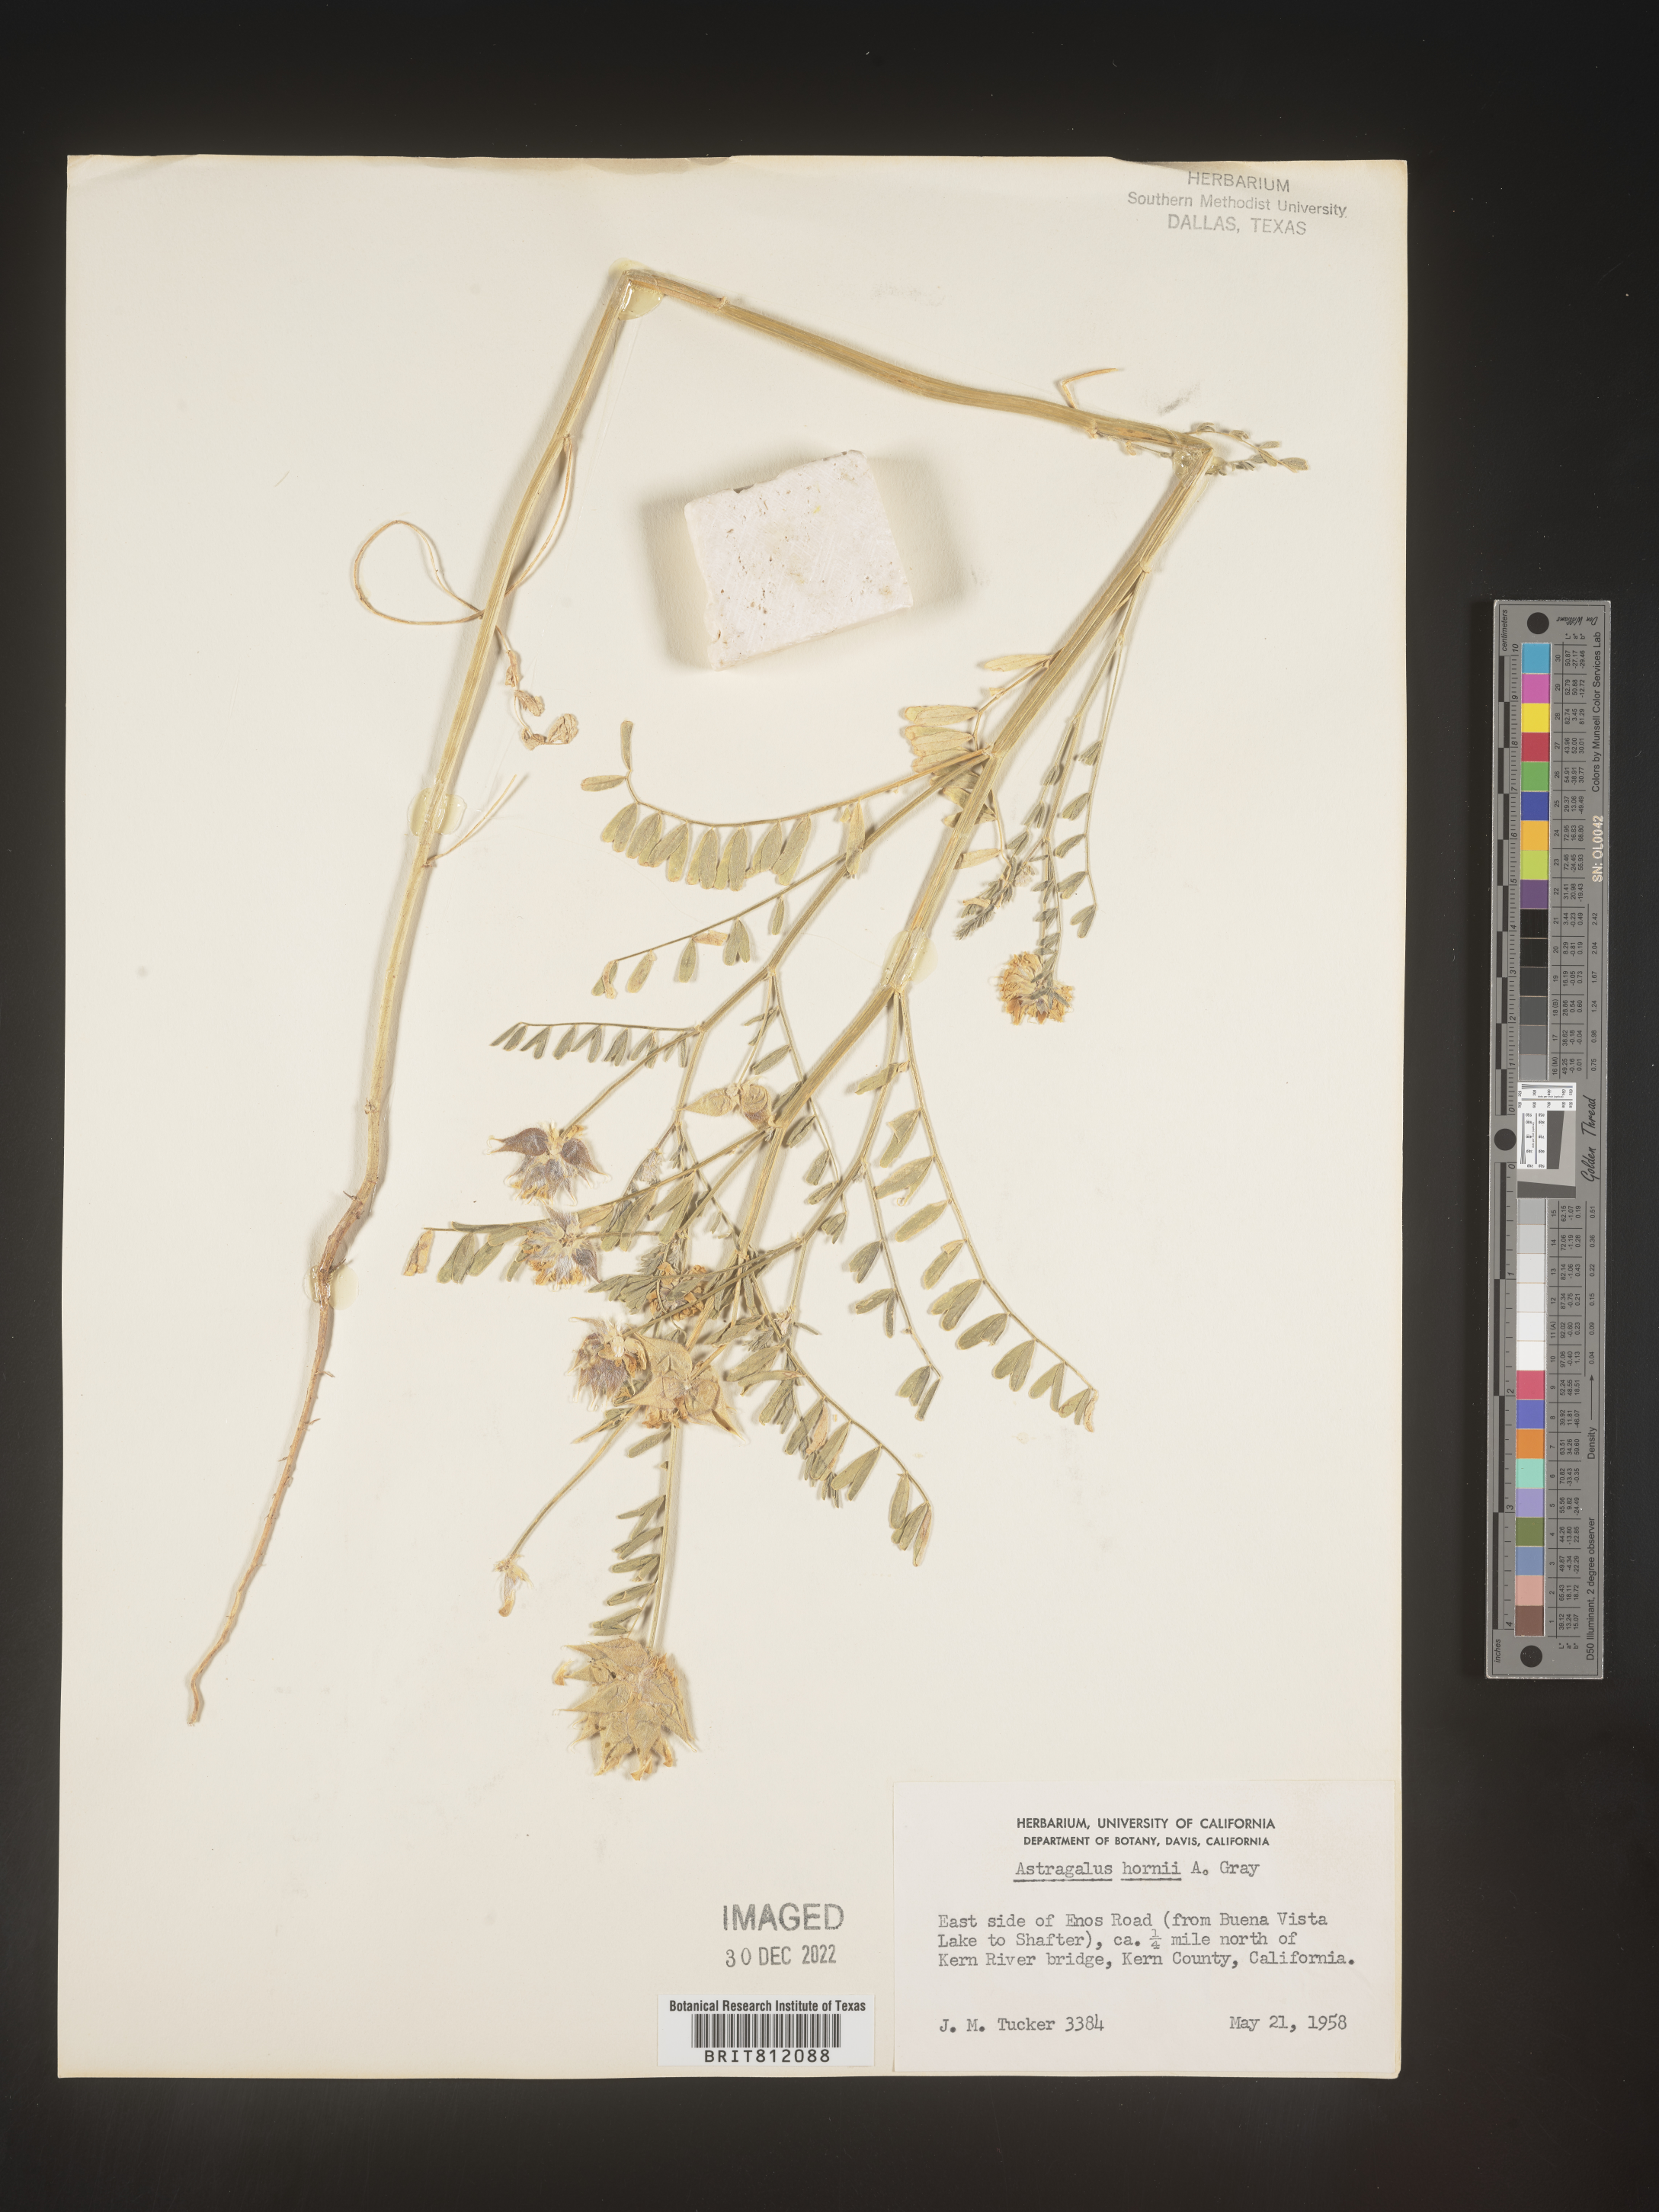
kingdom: Plantae
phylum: Tracheophyta
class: Magnoliopsida
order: Fabales
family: Fabaceae
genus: Astragalus
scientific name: Astragalus
